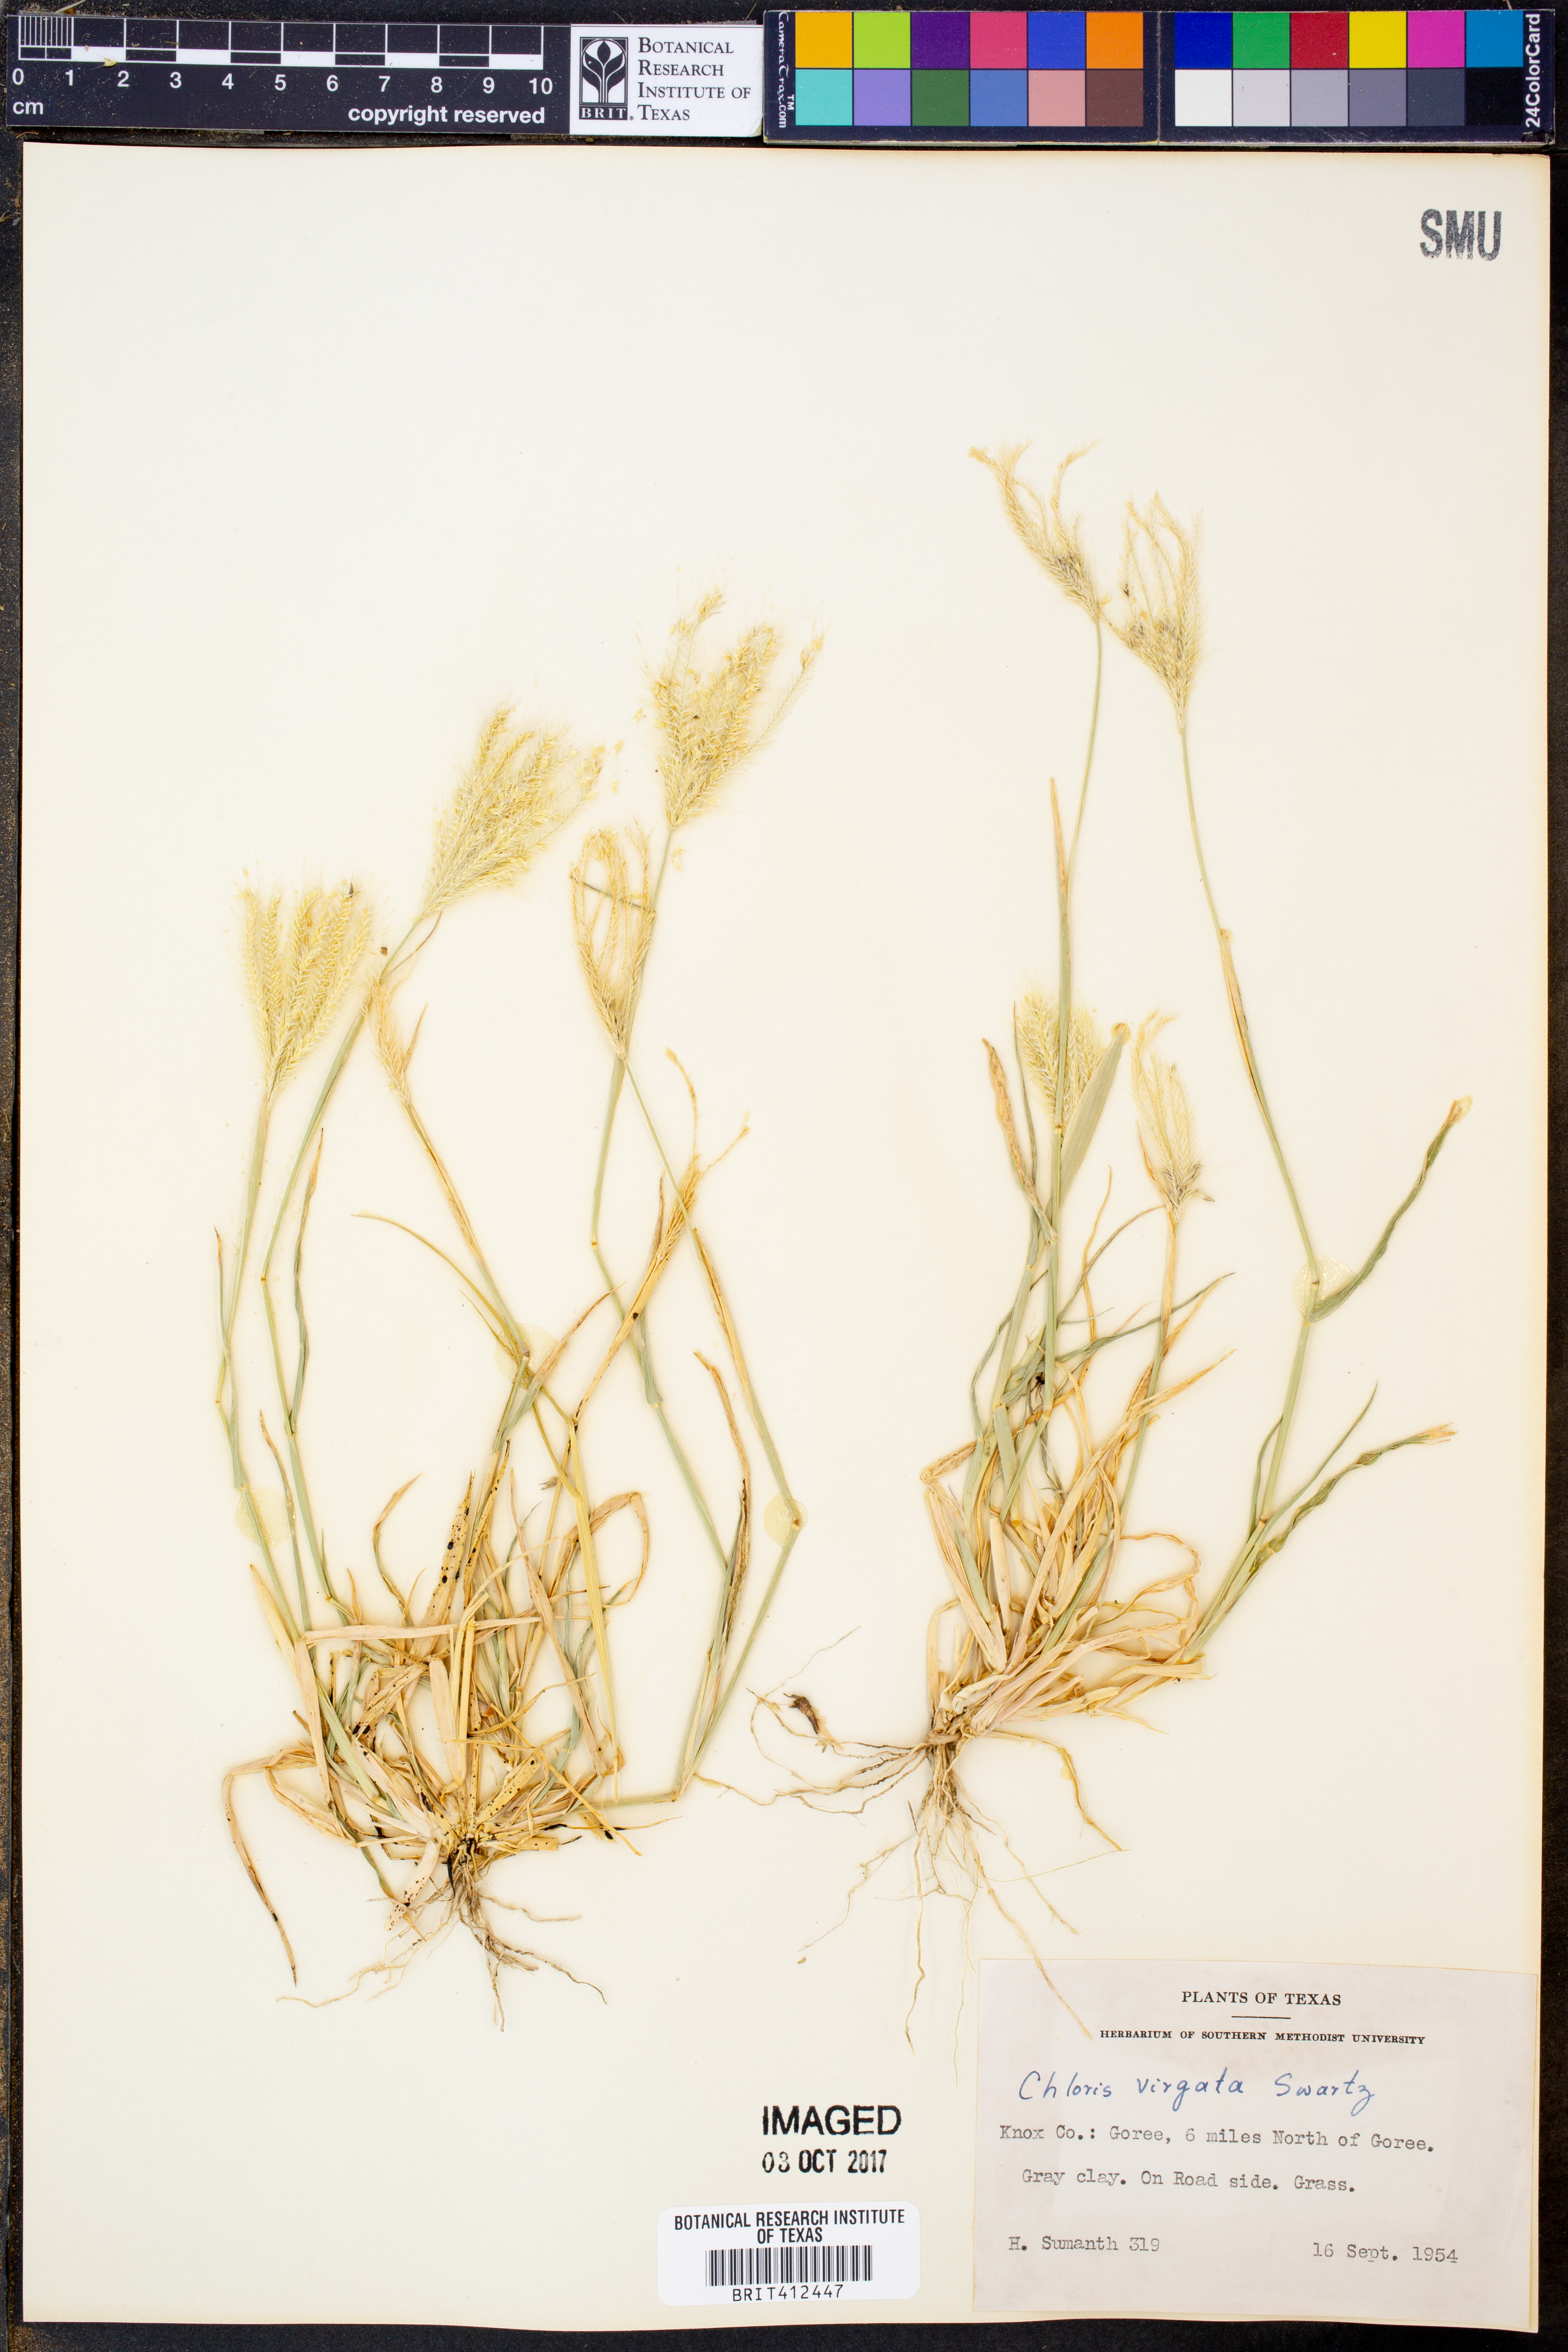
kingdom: Plantae
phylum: Tracheophyta
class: Liliopsida
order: Poales
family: Poaceae
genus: Chloris
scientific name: Chloris virgata
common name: Feathery rhodes-grass
